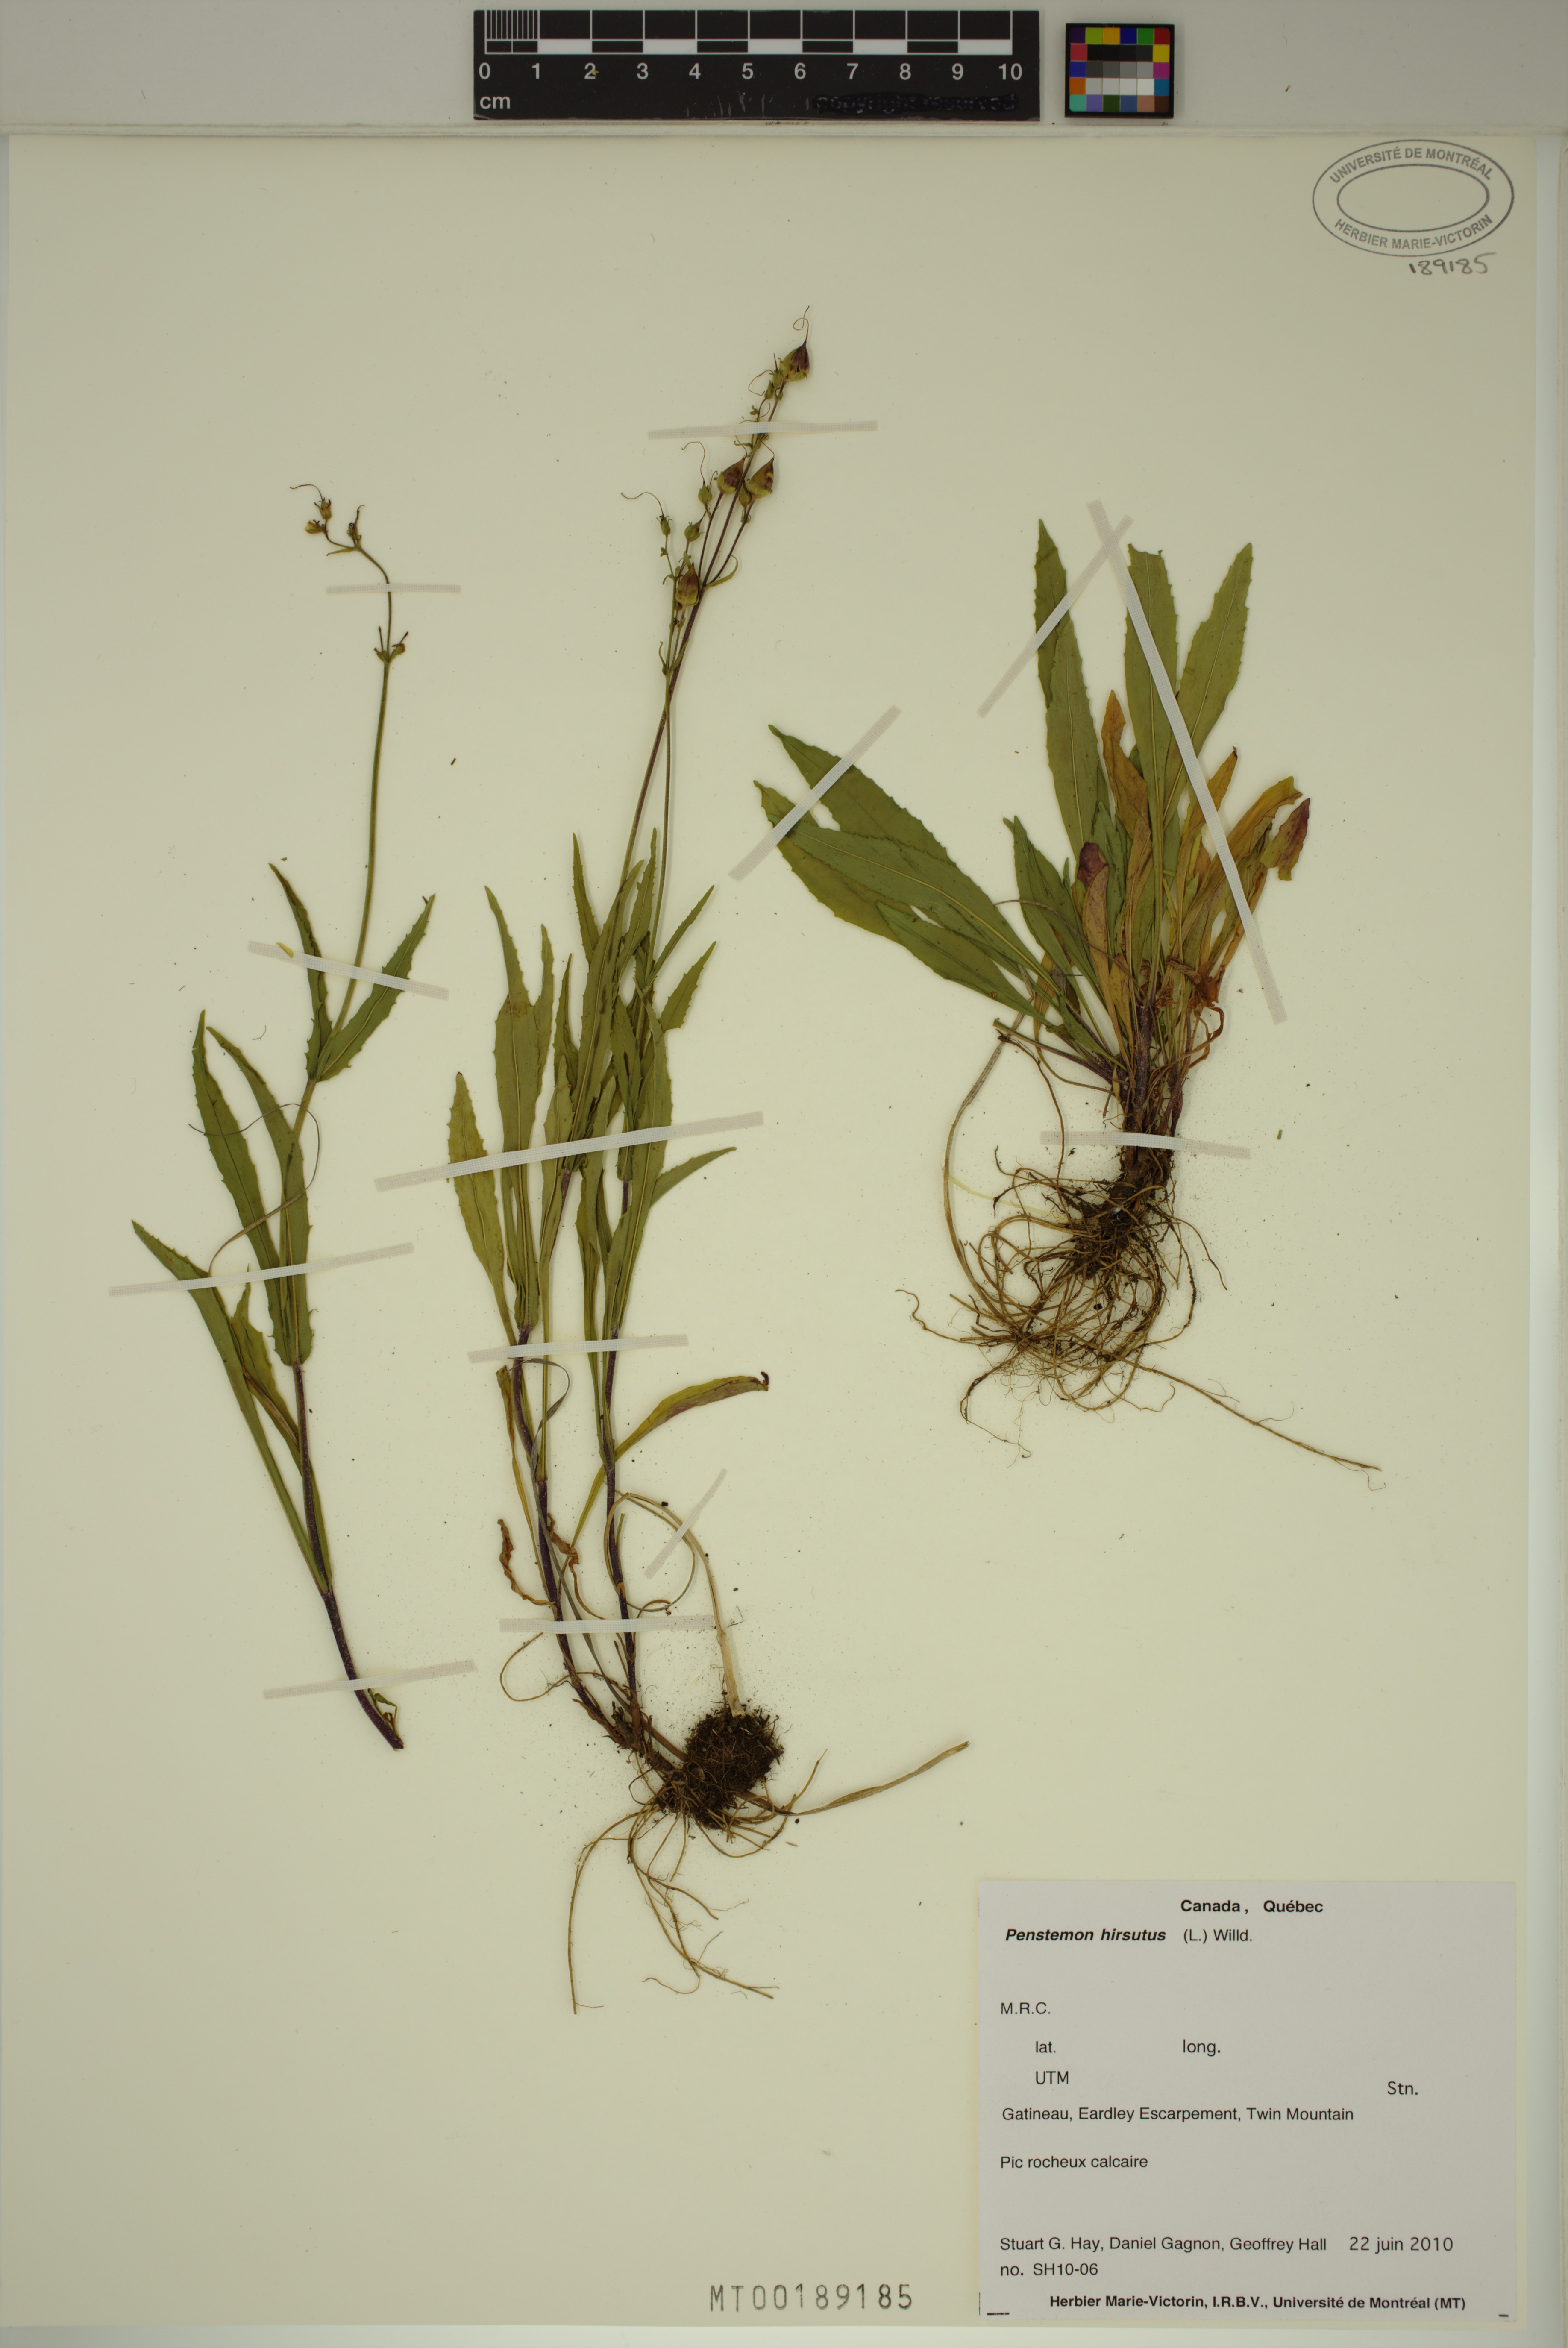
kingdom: Plantae
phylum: Tracheophyta
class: Magnoliopsida
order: Lamiales
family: Plantaginaceae
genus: Penstemon
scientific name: Penstemon hirsutus
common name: Hairy beardtongue
